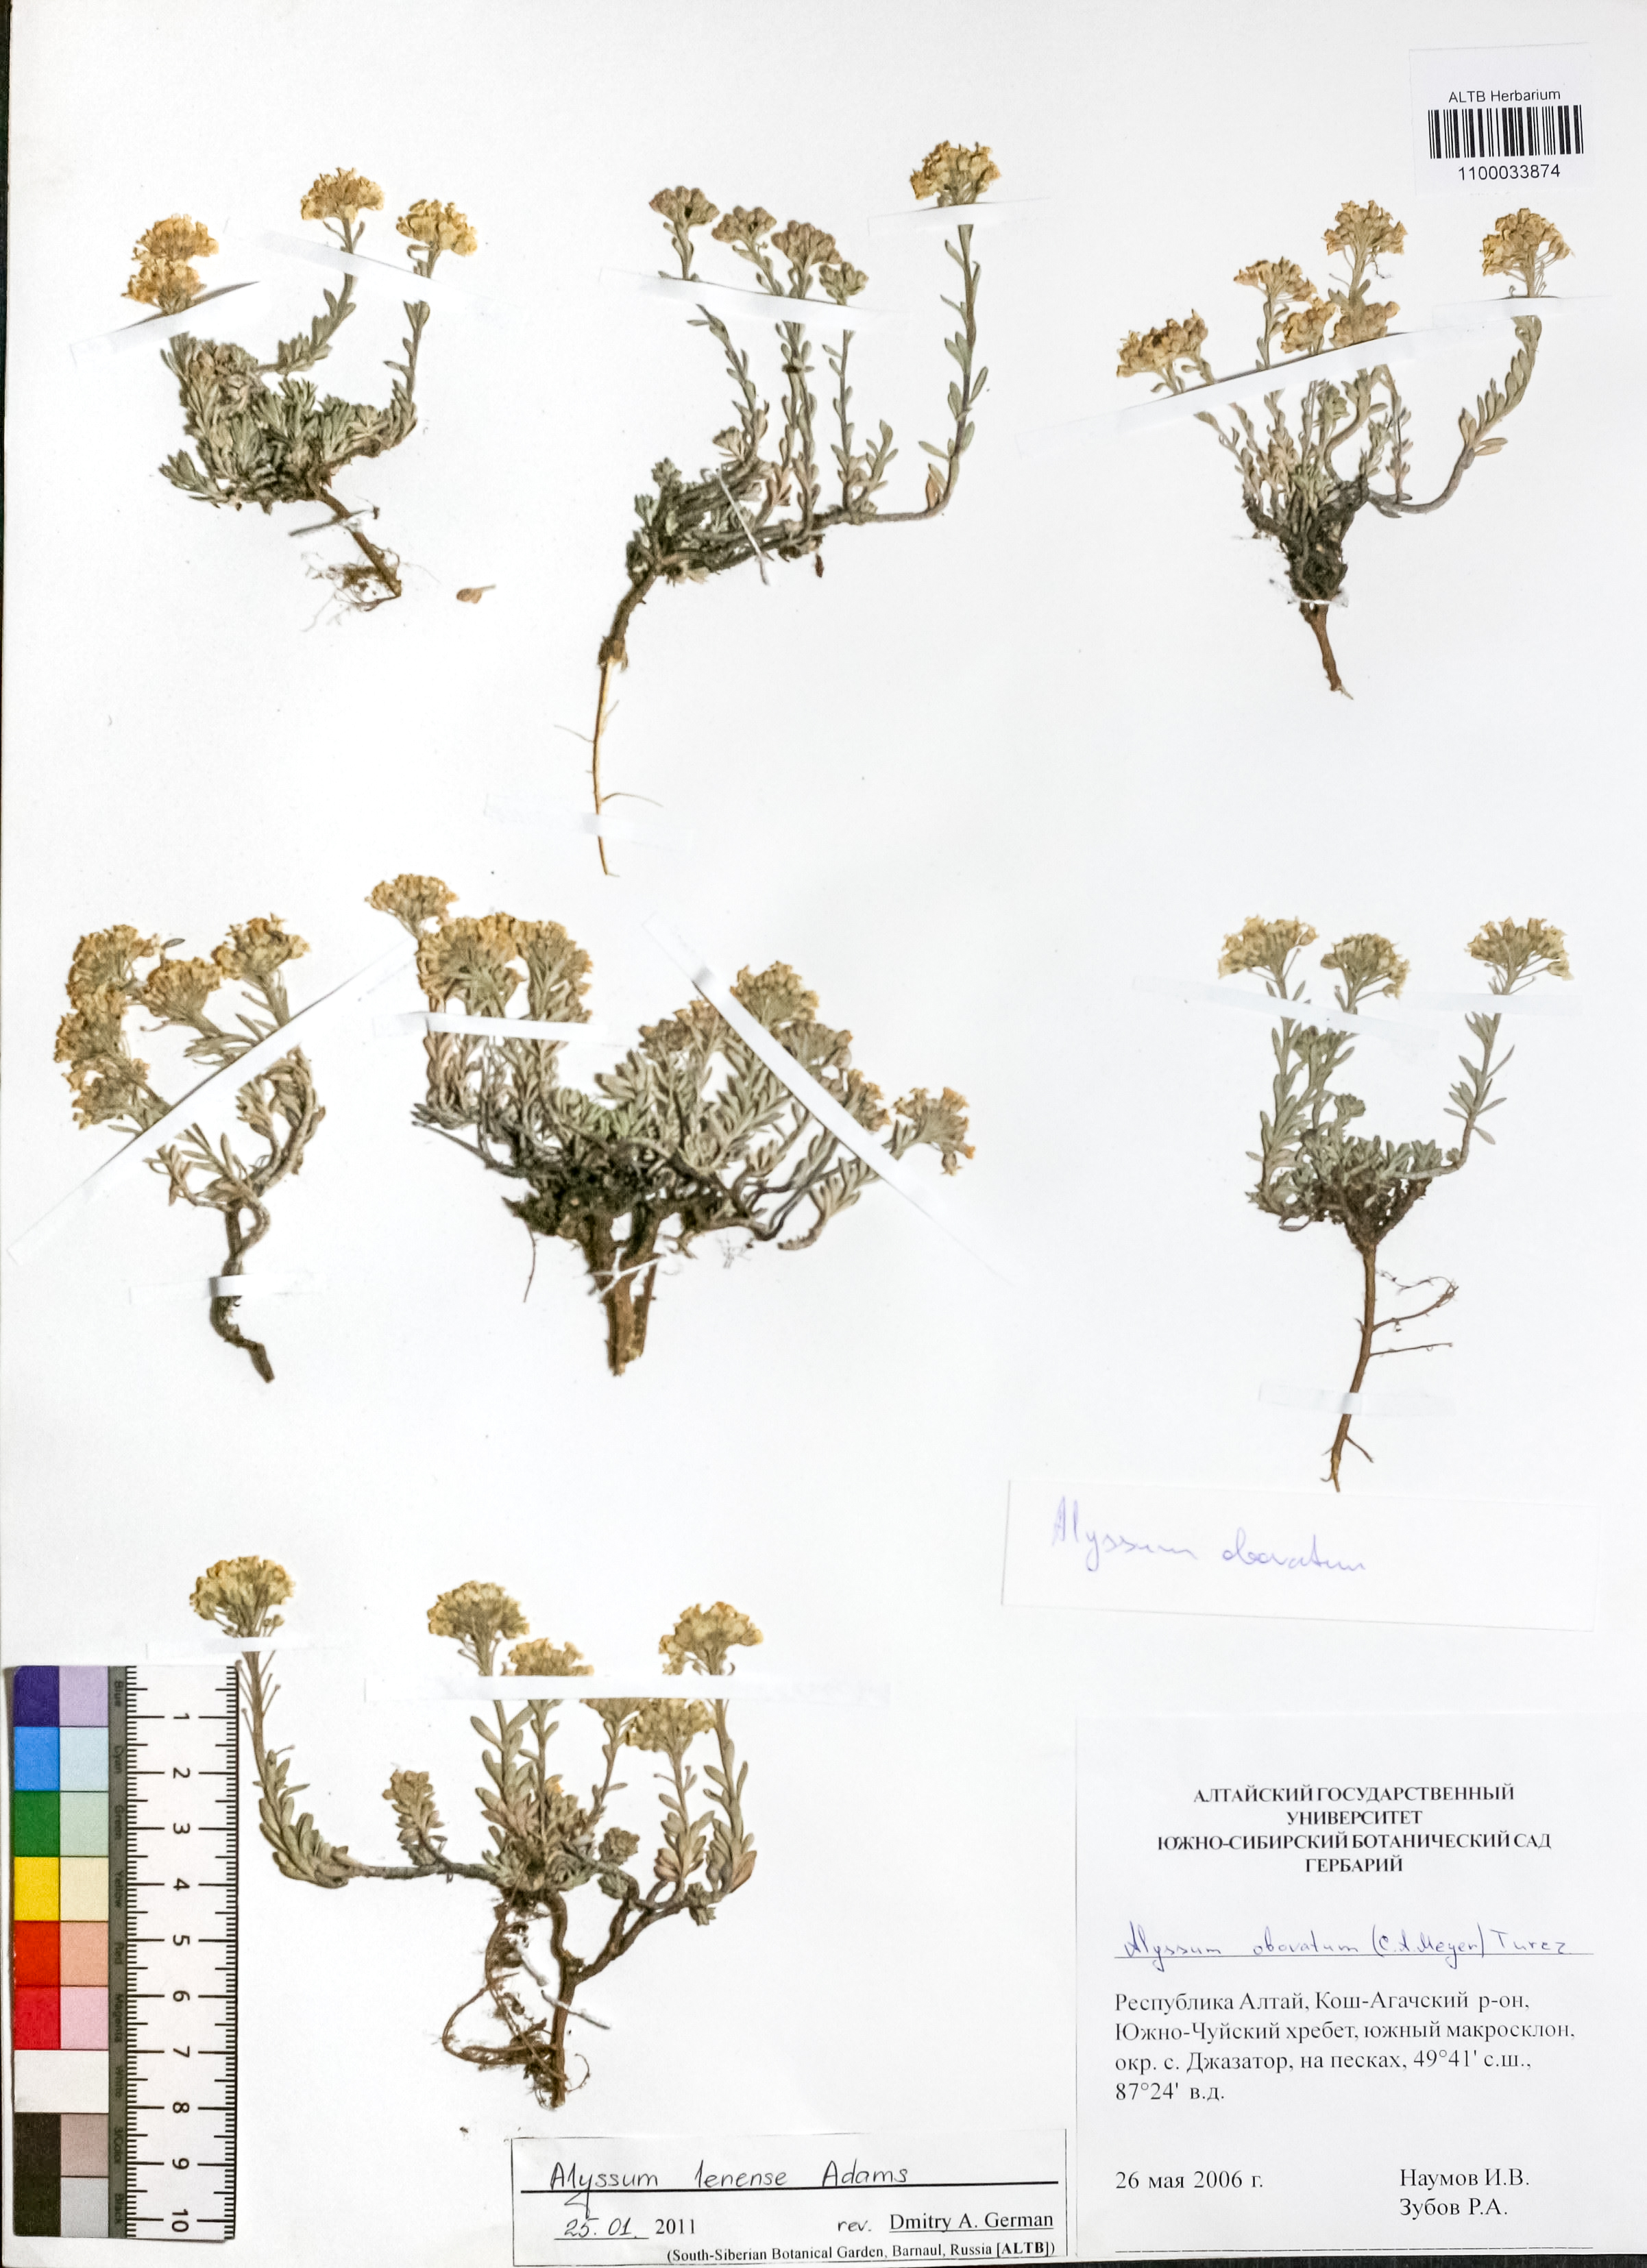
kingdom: Plantae
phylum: Tracheophyta
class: Magnoliopsida
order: Brassicales
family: Brassicaceae
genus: Alyssum
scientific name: Alyssum lenense
